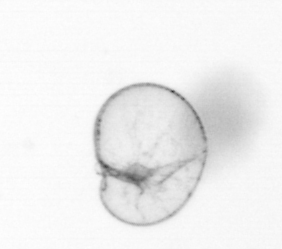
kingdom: Chromista
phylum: Myzozoa
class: Dinophyceae
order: Noctilucales
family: Noctilucaceae
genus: Noctiluca
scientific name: Noctiluca scintillans
